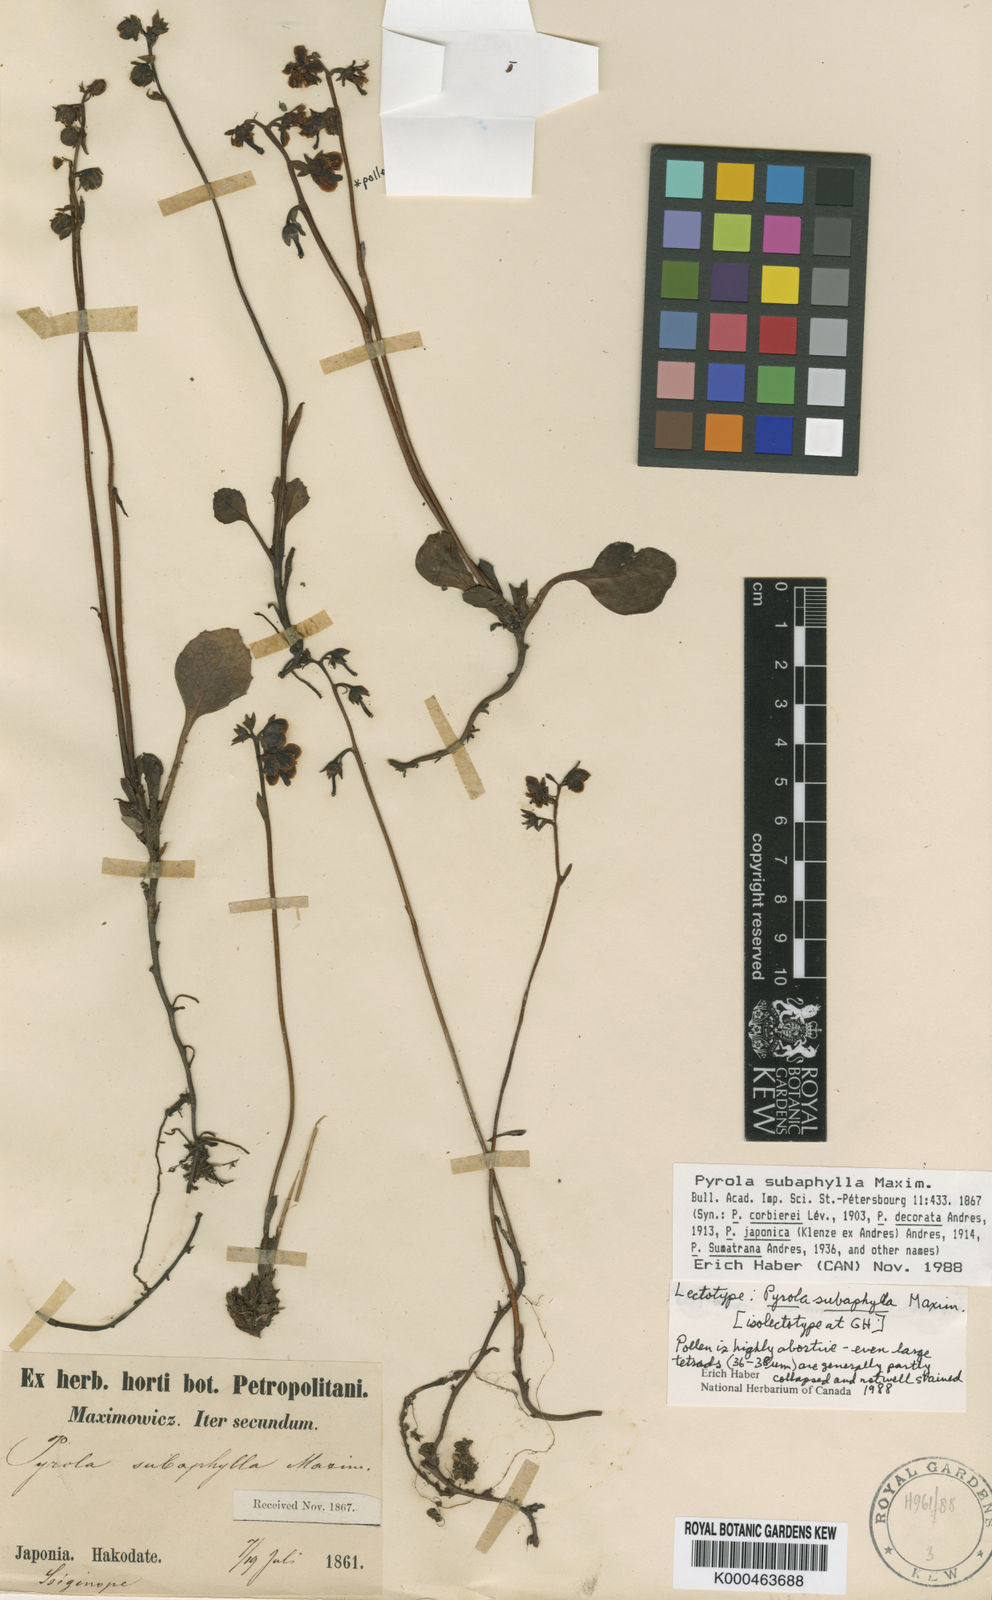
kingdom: Plantae
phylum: Tracheophyta
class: Magnoliopsida
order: Ericales
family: Ericaceae
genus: Pyrola
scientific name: Pyrola subaphylla
